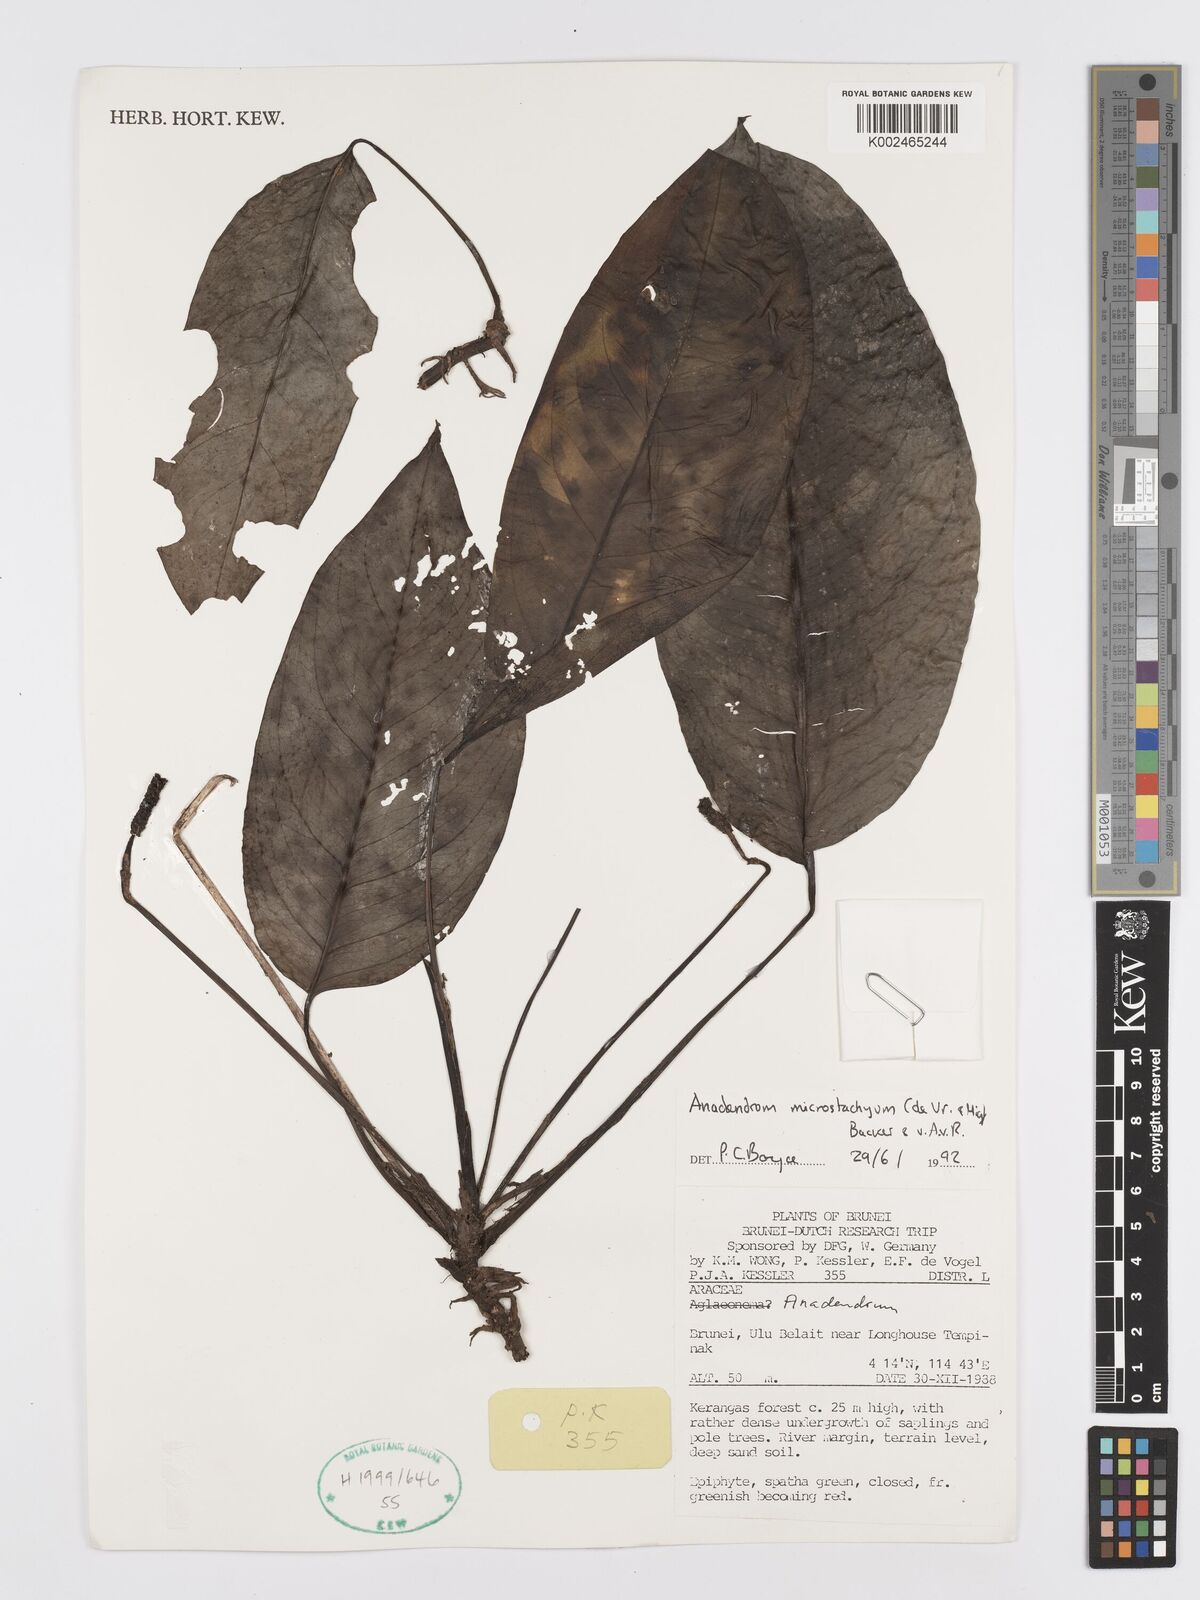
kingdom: Plantae
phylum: Tracheophyta
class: Liliopsida
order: Alismatales
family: Araceae
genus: Anadendrum
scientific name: Anadendrum microstachyum
